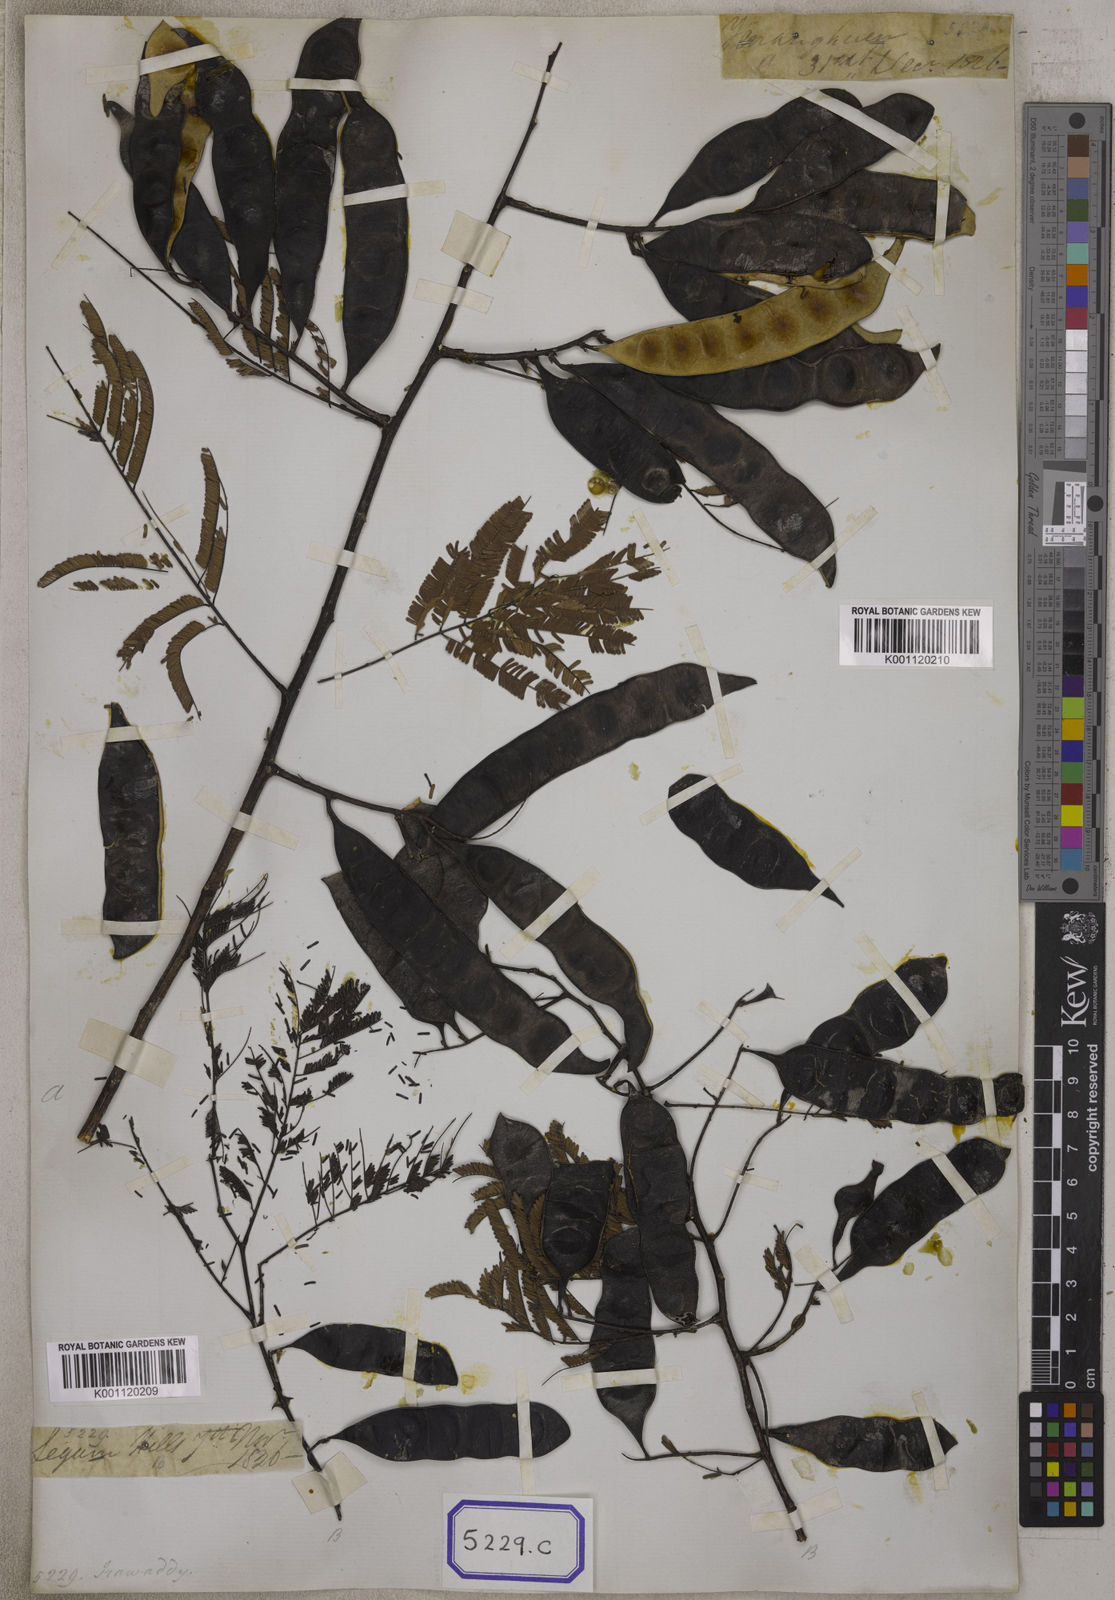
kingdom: Plantae
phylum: Tracheophyta
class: Magnoliopsida
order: Fabales
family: Fabaceae
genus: Senegalia
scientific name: Senegalia catechu
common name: Black cutch
